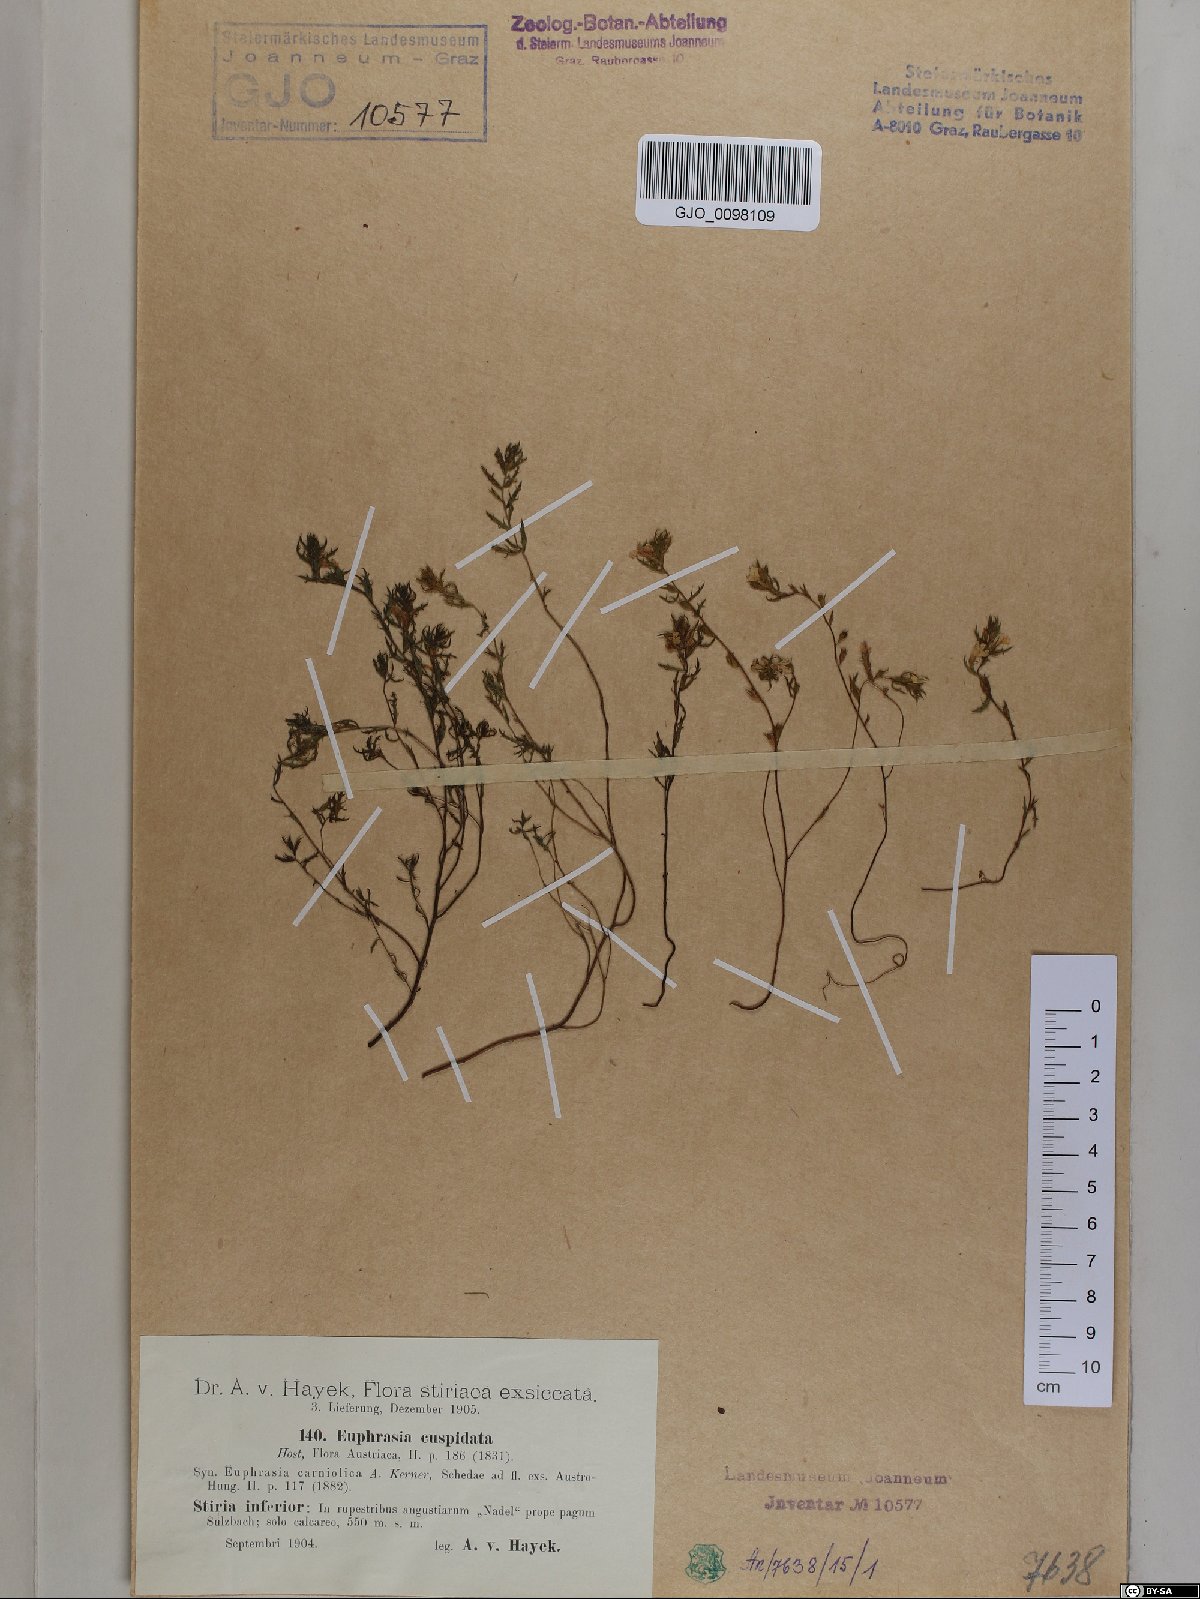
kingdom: Plantae
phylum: Tracheophyta
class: Magnoliopsida
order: Lamiales
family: Orobanchaceae
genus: Euphrasia
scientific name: Euphrasia cuspidata
